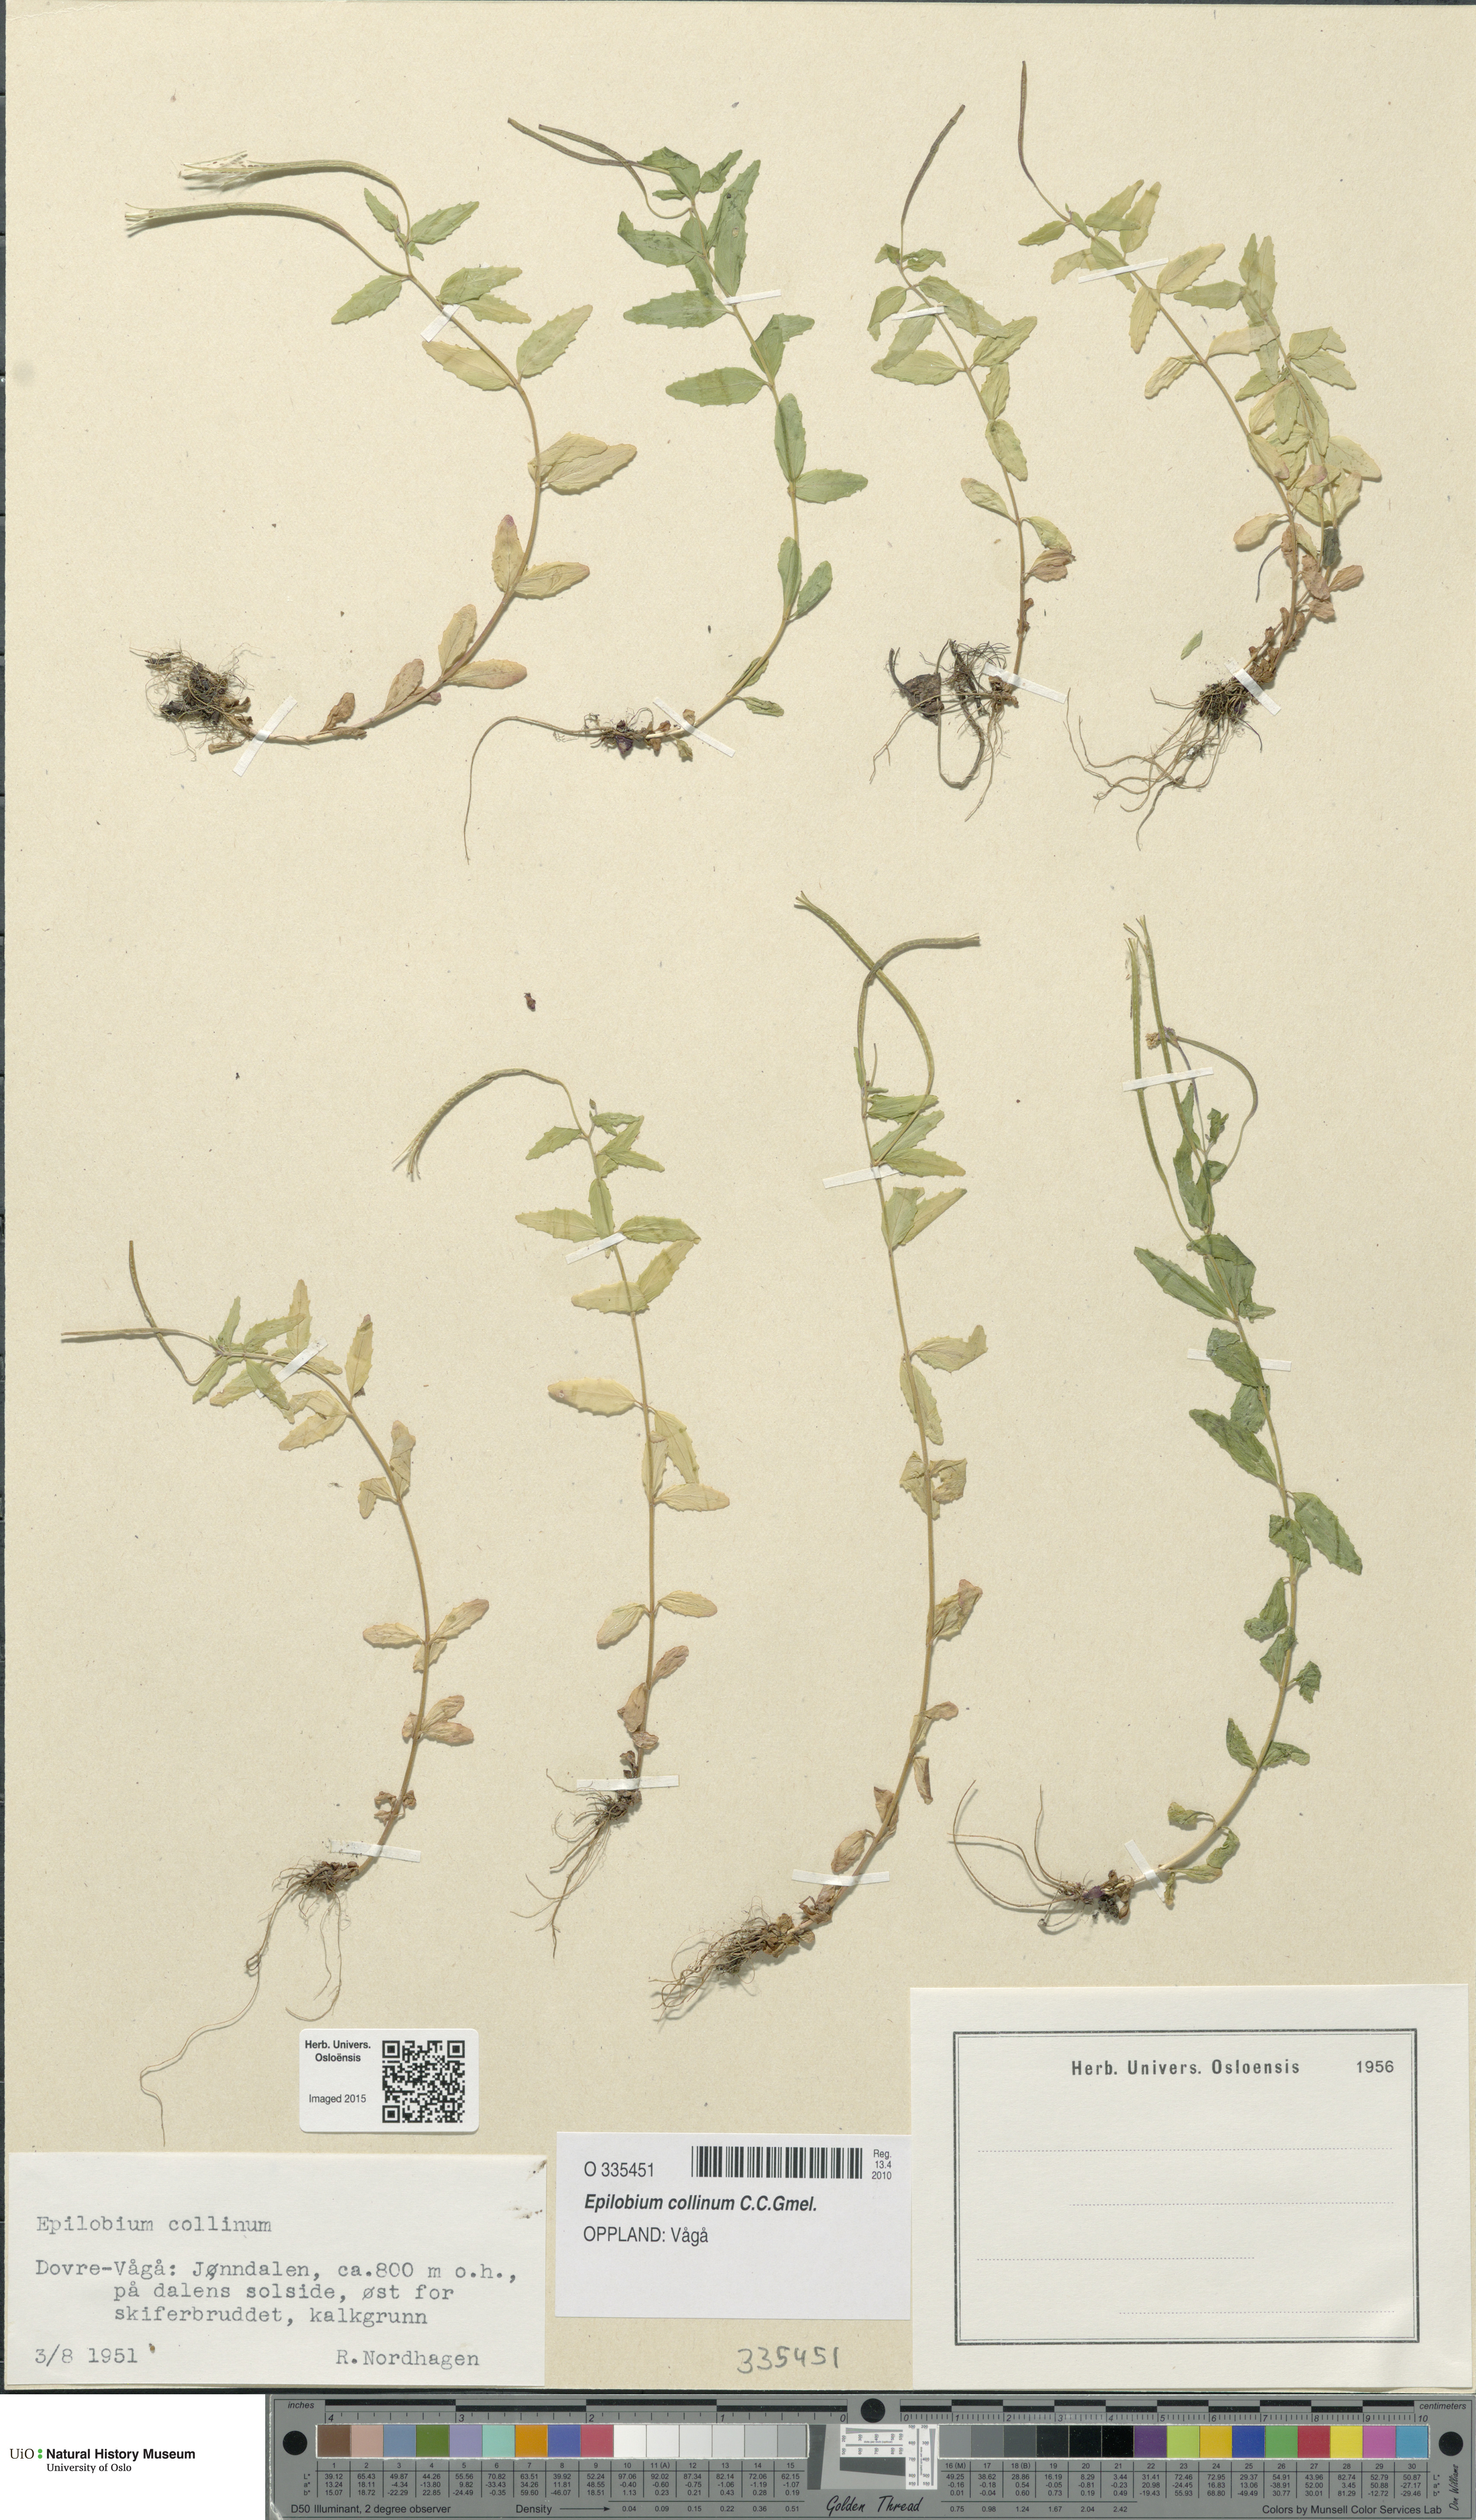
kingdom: Plantae
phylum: Tracheophyta
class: Magnoliopsida
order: Myrtales
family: Onagraceae
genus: Epilobium
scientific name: Epilobium collinum
